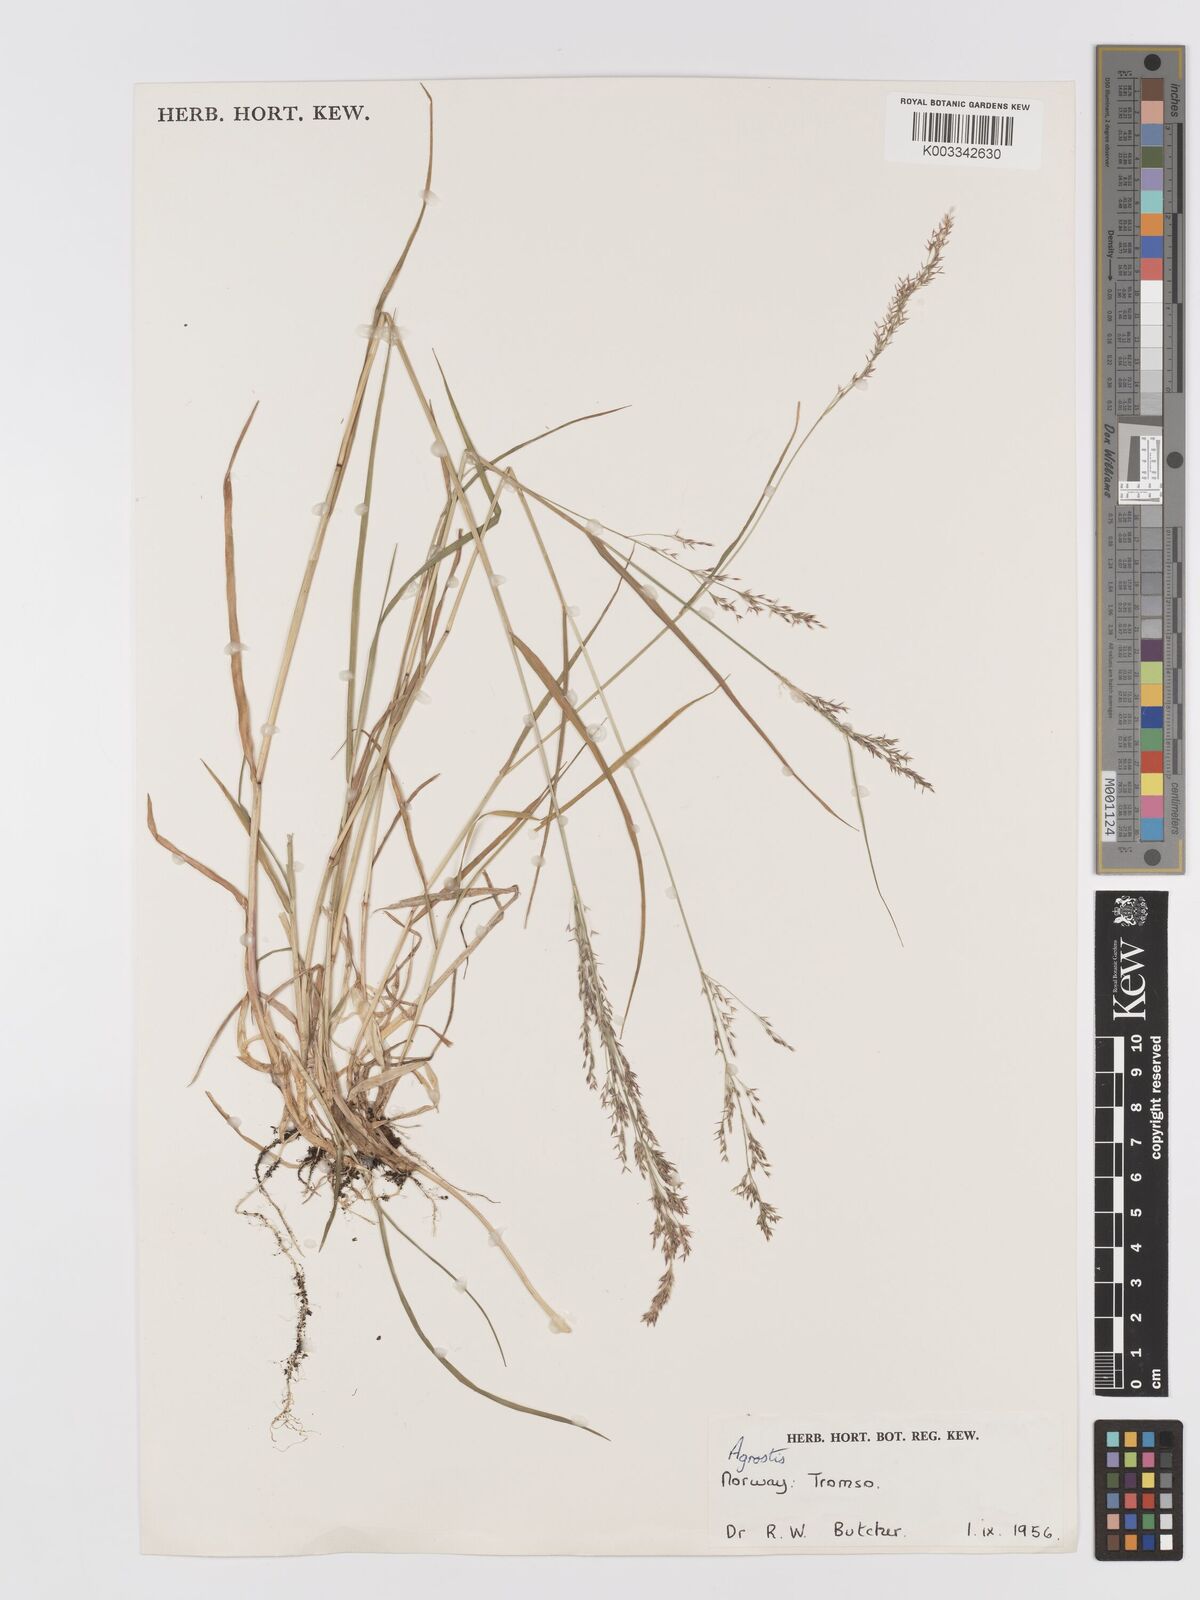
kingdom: Plantae
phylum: Tracheophyta
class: Liliopsida
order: Poales
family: Poaceae
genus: Agrostis
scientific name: Agrostis
